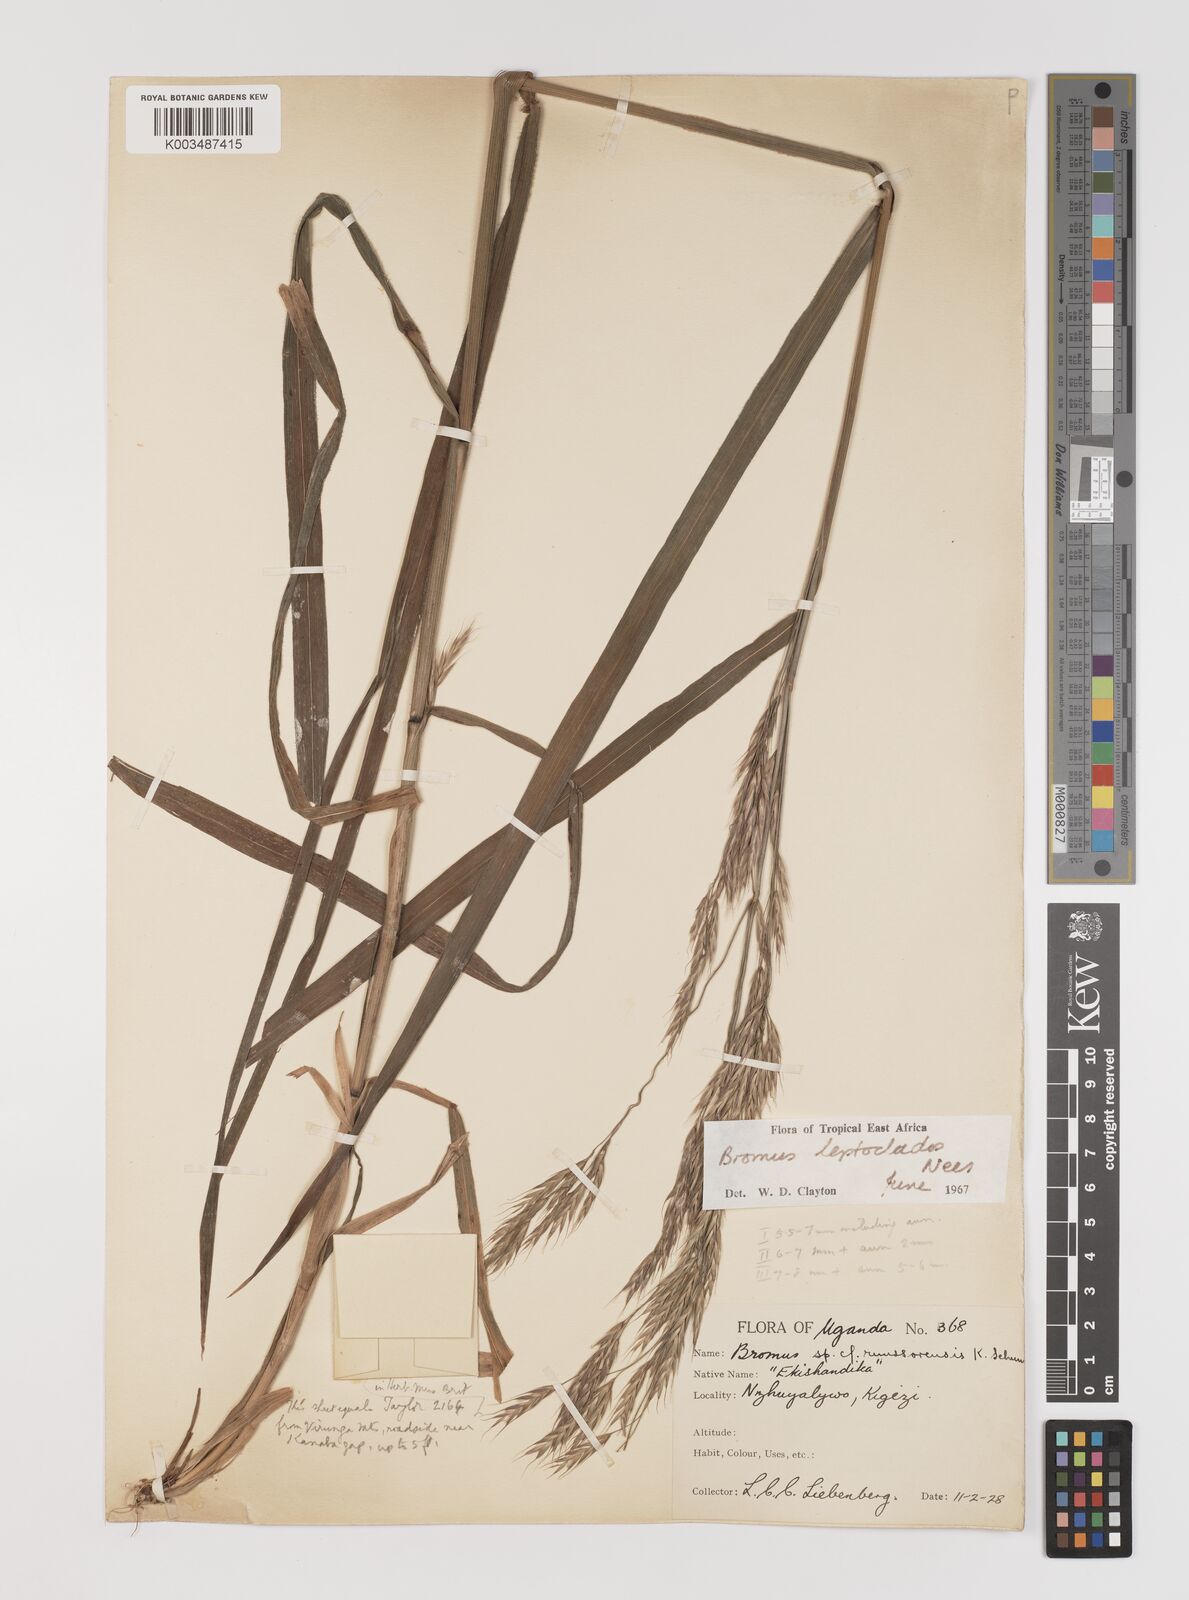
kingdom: Plantae
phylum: Tracheophyta
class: Liliopsida
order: Poales
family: Poaceae
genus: Bromus
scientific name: Bromus leptoclados
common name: Mountain bromegrass
